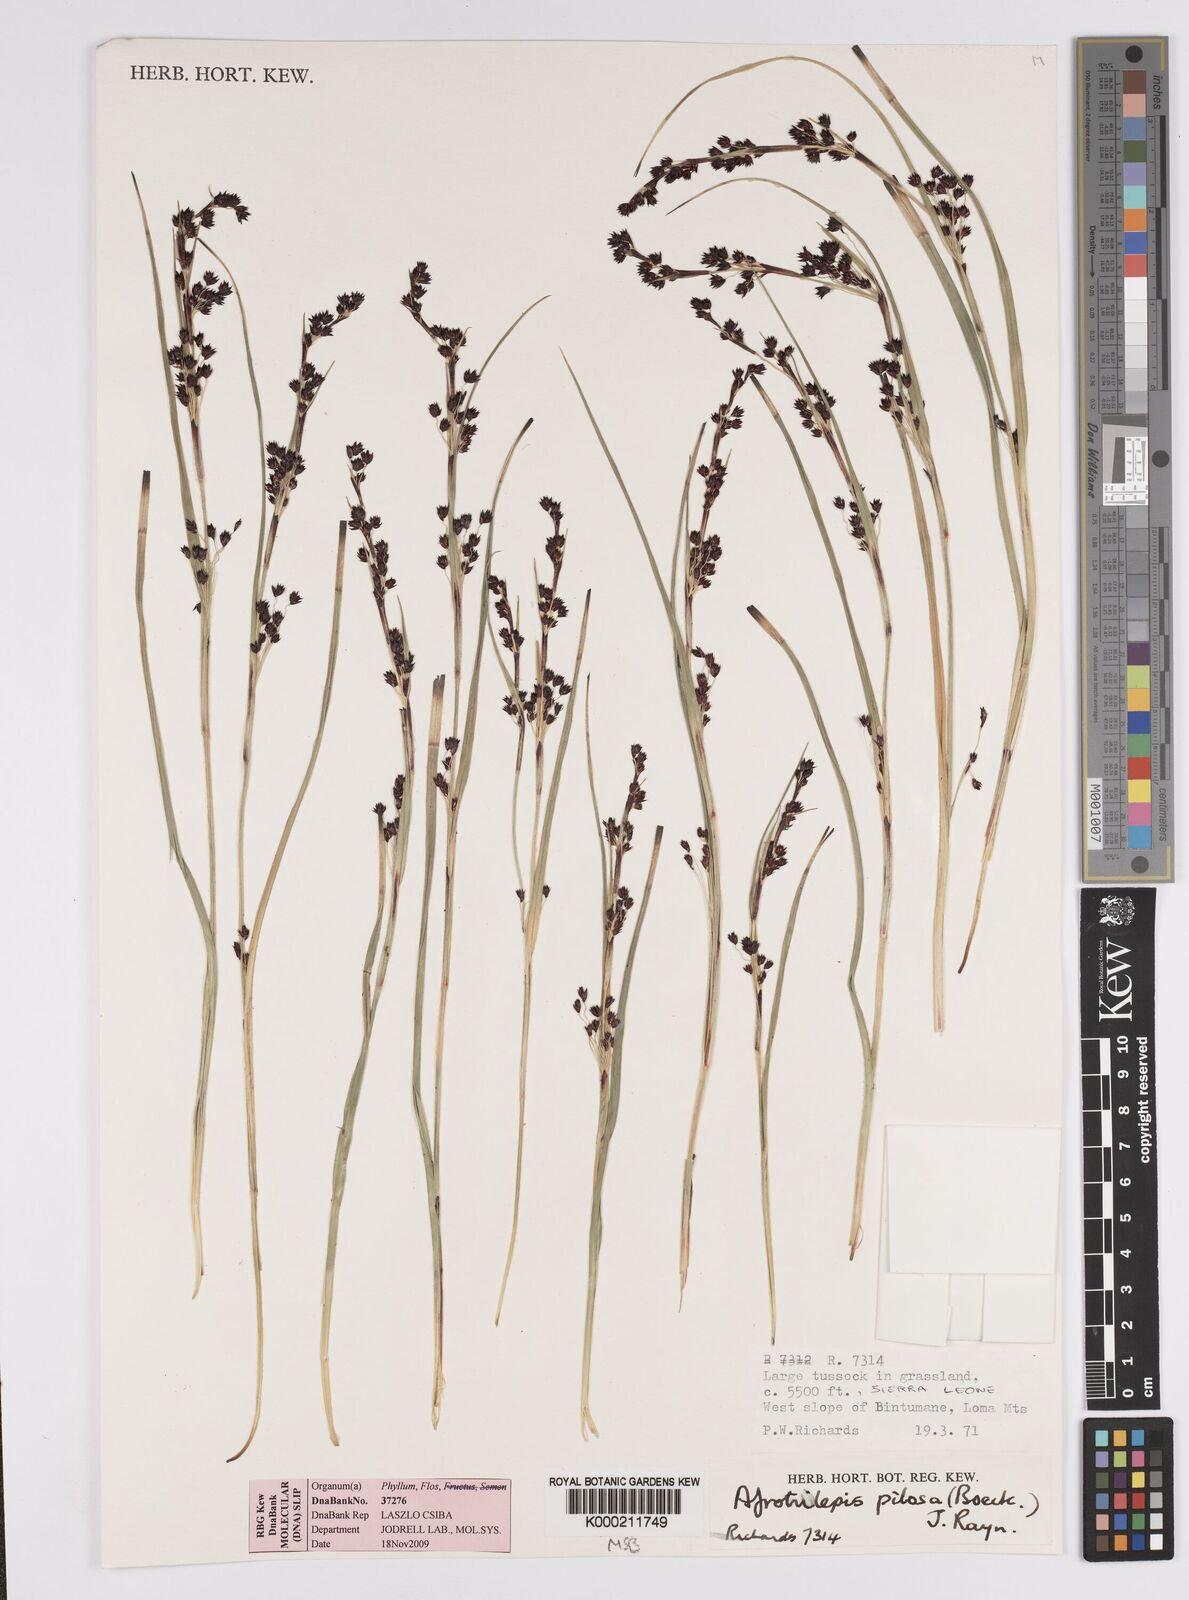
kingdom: Plantae
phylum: Tracheophyta
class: Liliopsida
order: Poales
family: Cyperaceae
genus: Afrotrilepis
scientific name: Afrotrilepis pilosa
